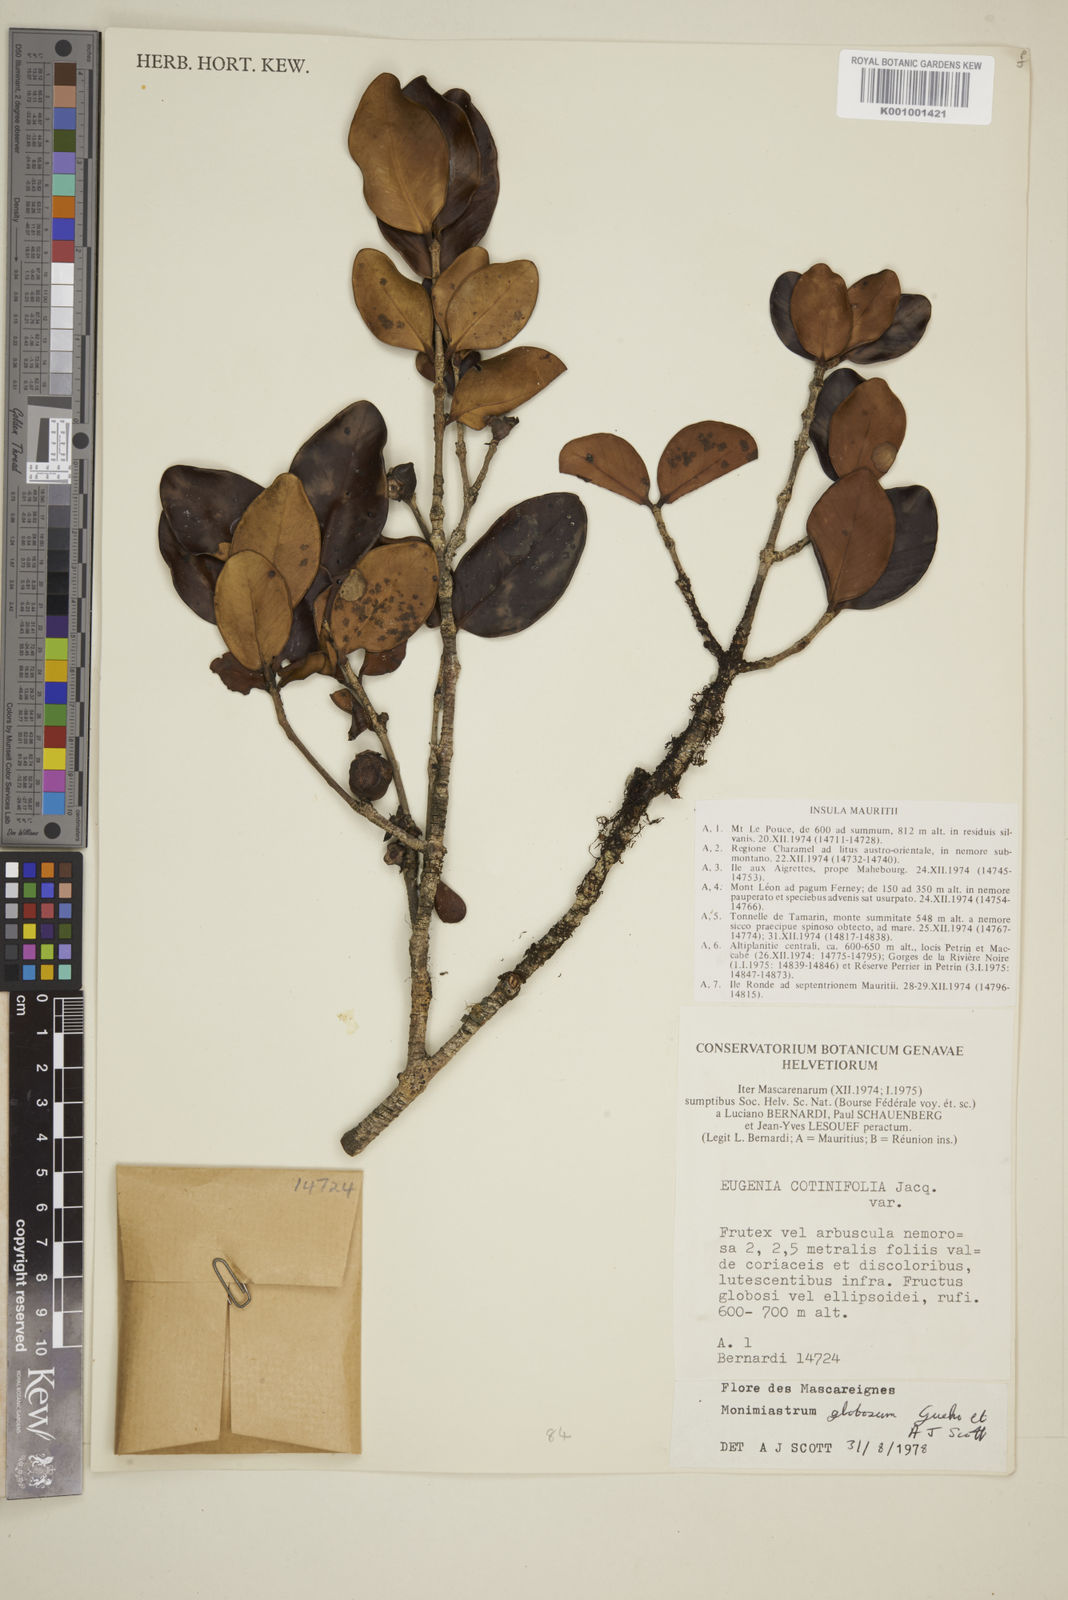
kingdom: Plantae
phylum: Tracheophyta
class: Magnoliopsida
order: Myrtales
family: Myrtaceae
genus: Eugenia
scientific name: Eugenia kanakana
